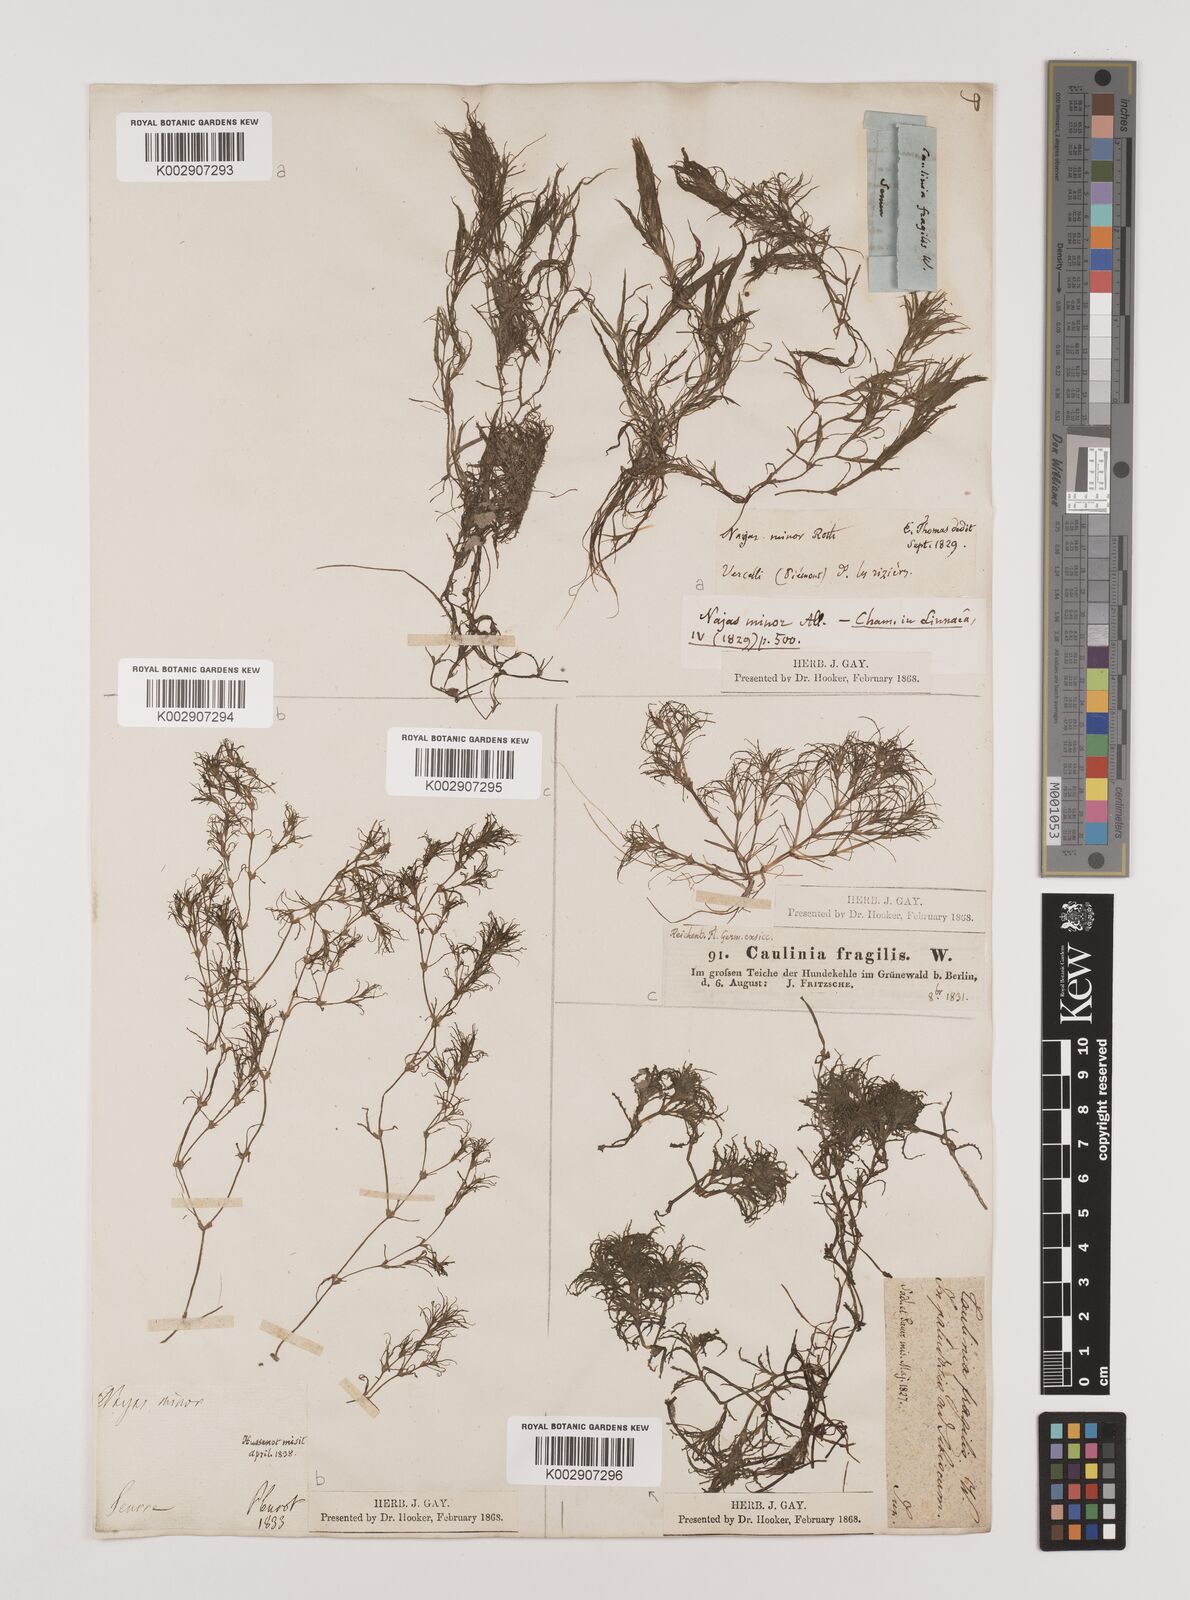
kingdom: Plantae
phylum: Tracheophyta
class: Liliopsida
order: Alismatales
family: Hydrocharitaceae
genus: Najas
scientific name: Najas minor
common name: Brittle naiad
